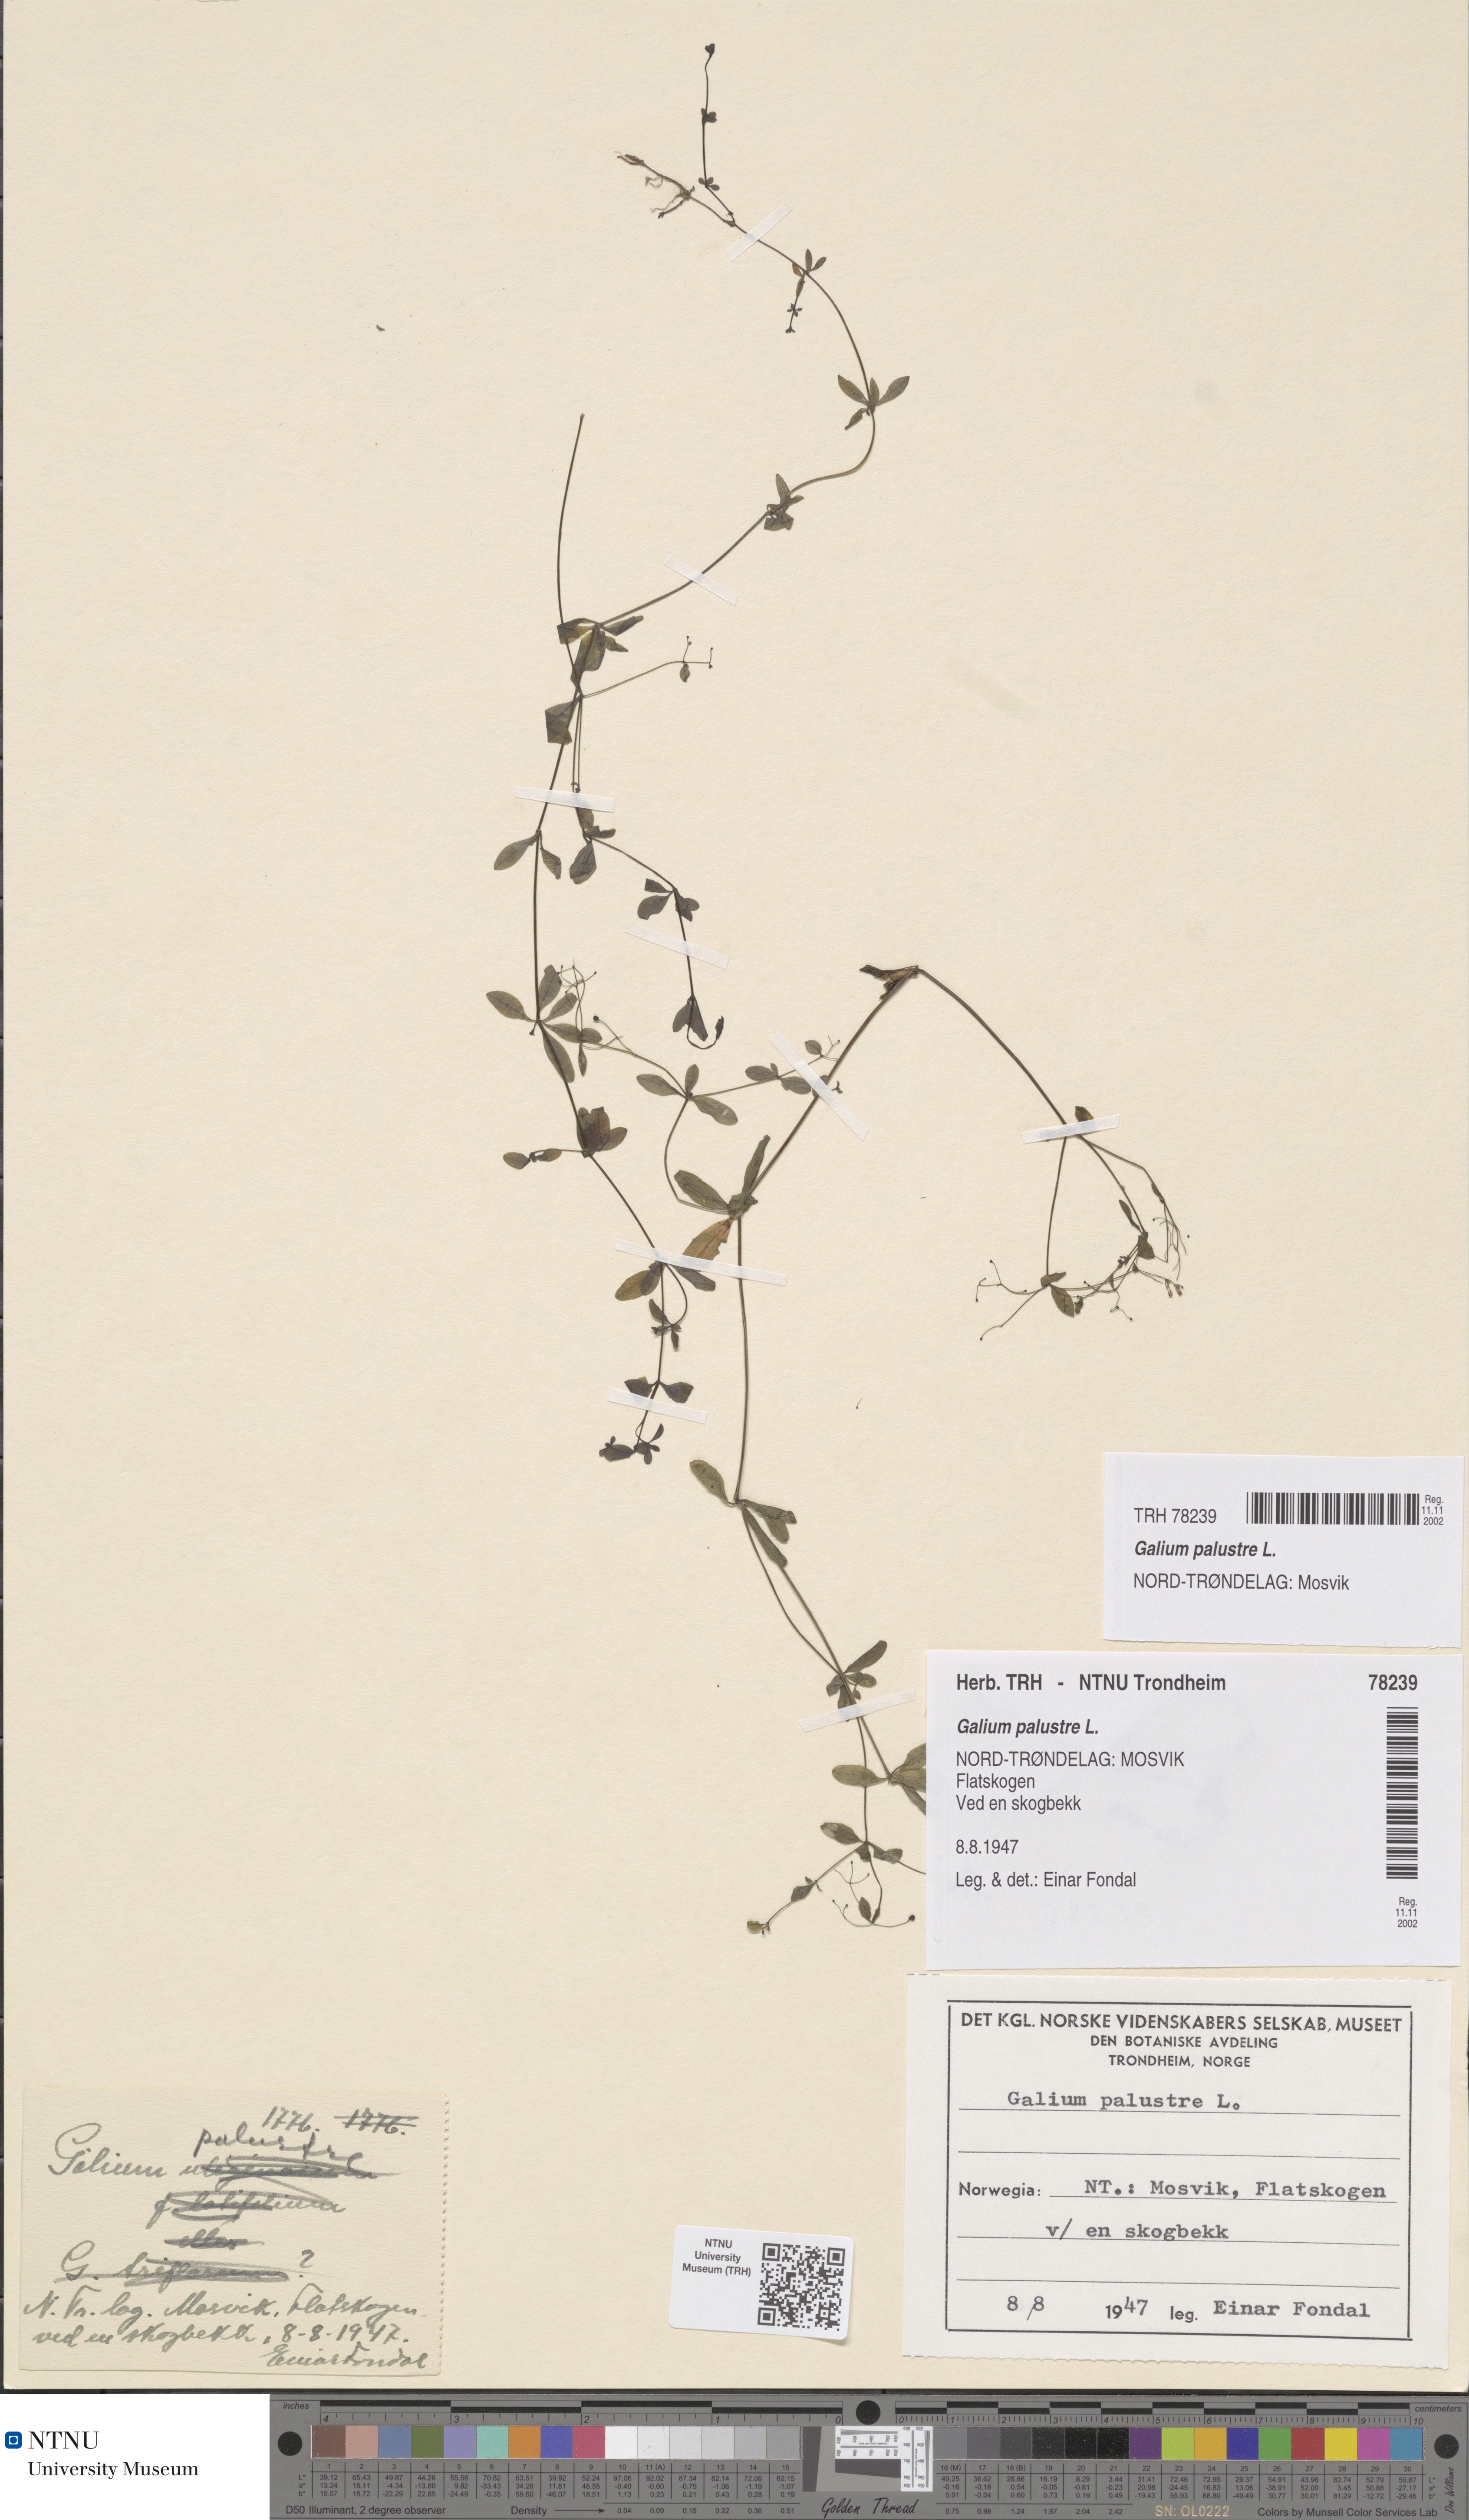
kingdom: Plantae
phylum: Tracheophyta
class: Magnoliopsida
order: Gentianales
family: Rubiaceae
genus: Galium
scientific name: Galium palustre
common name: Common marsh-bedstraw
